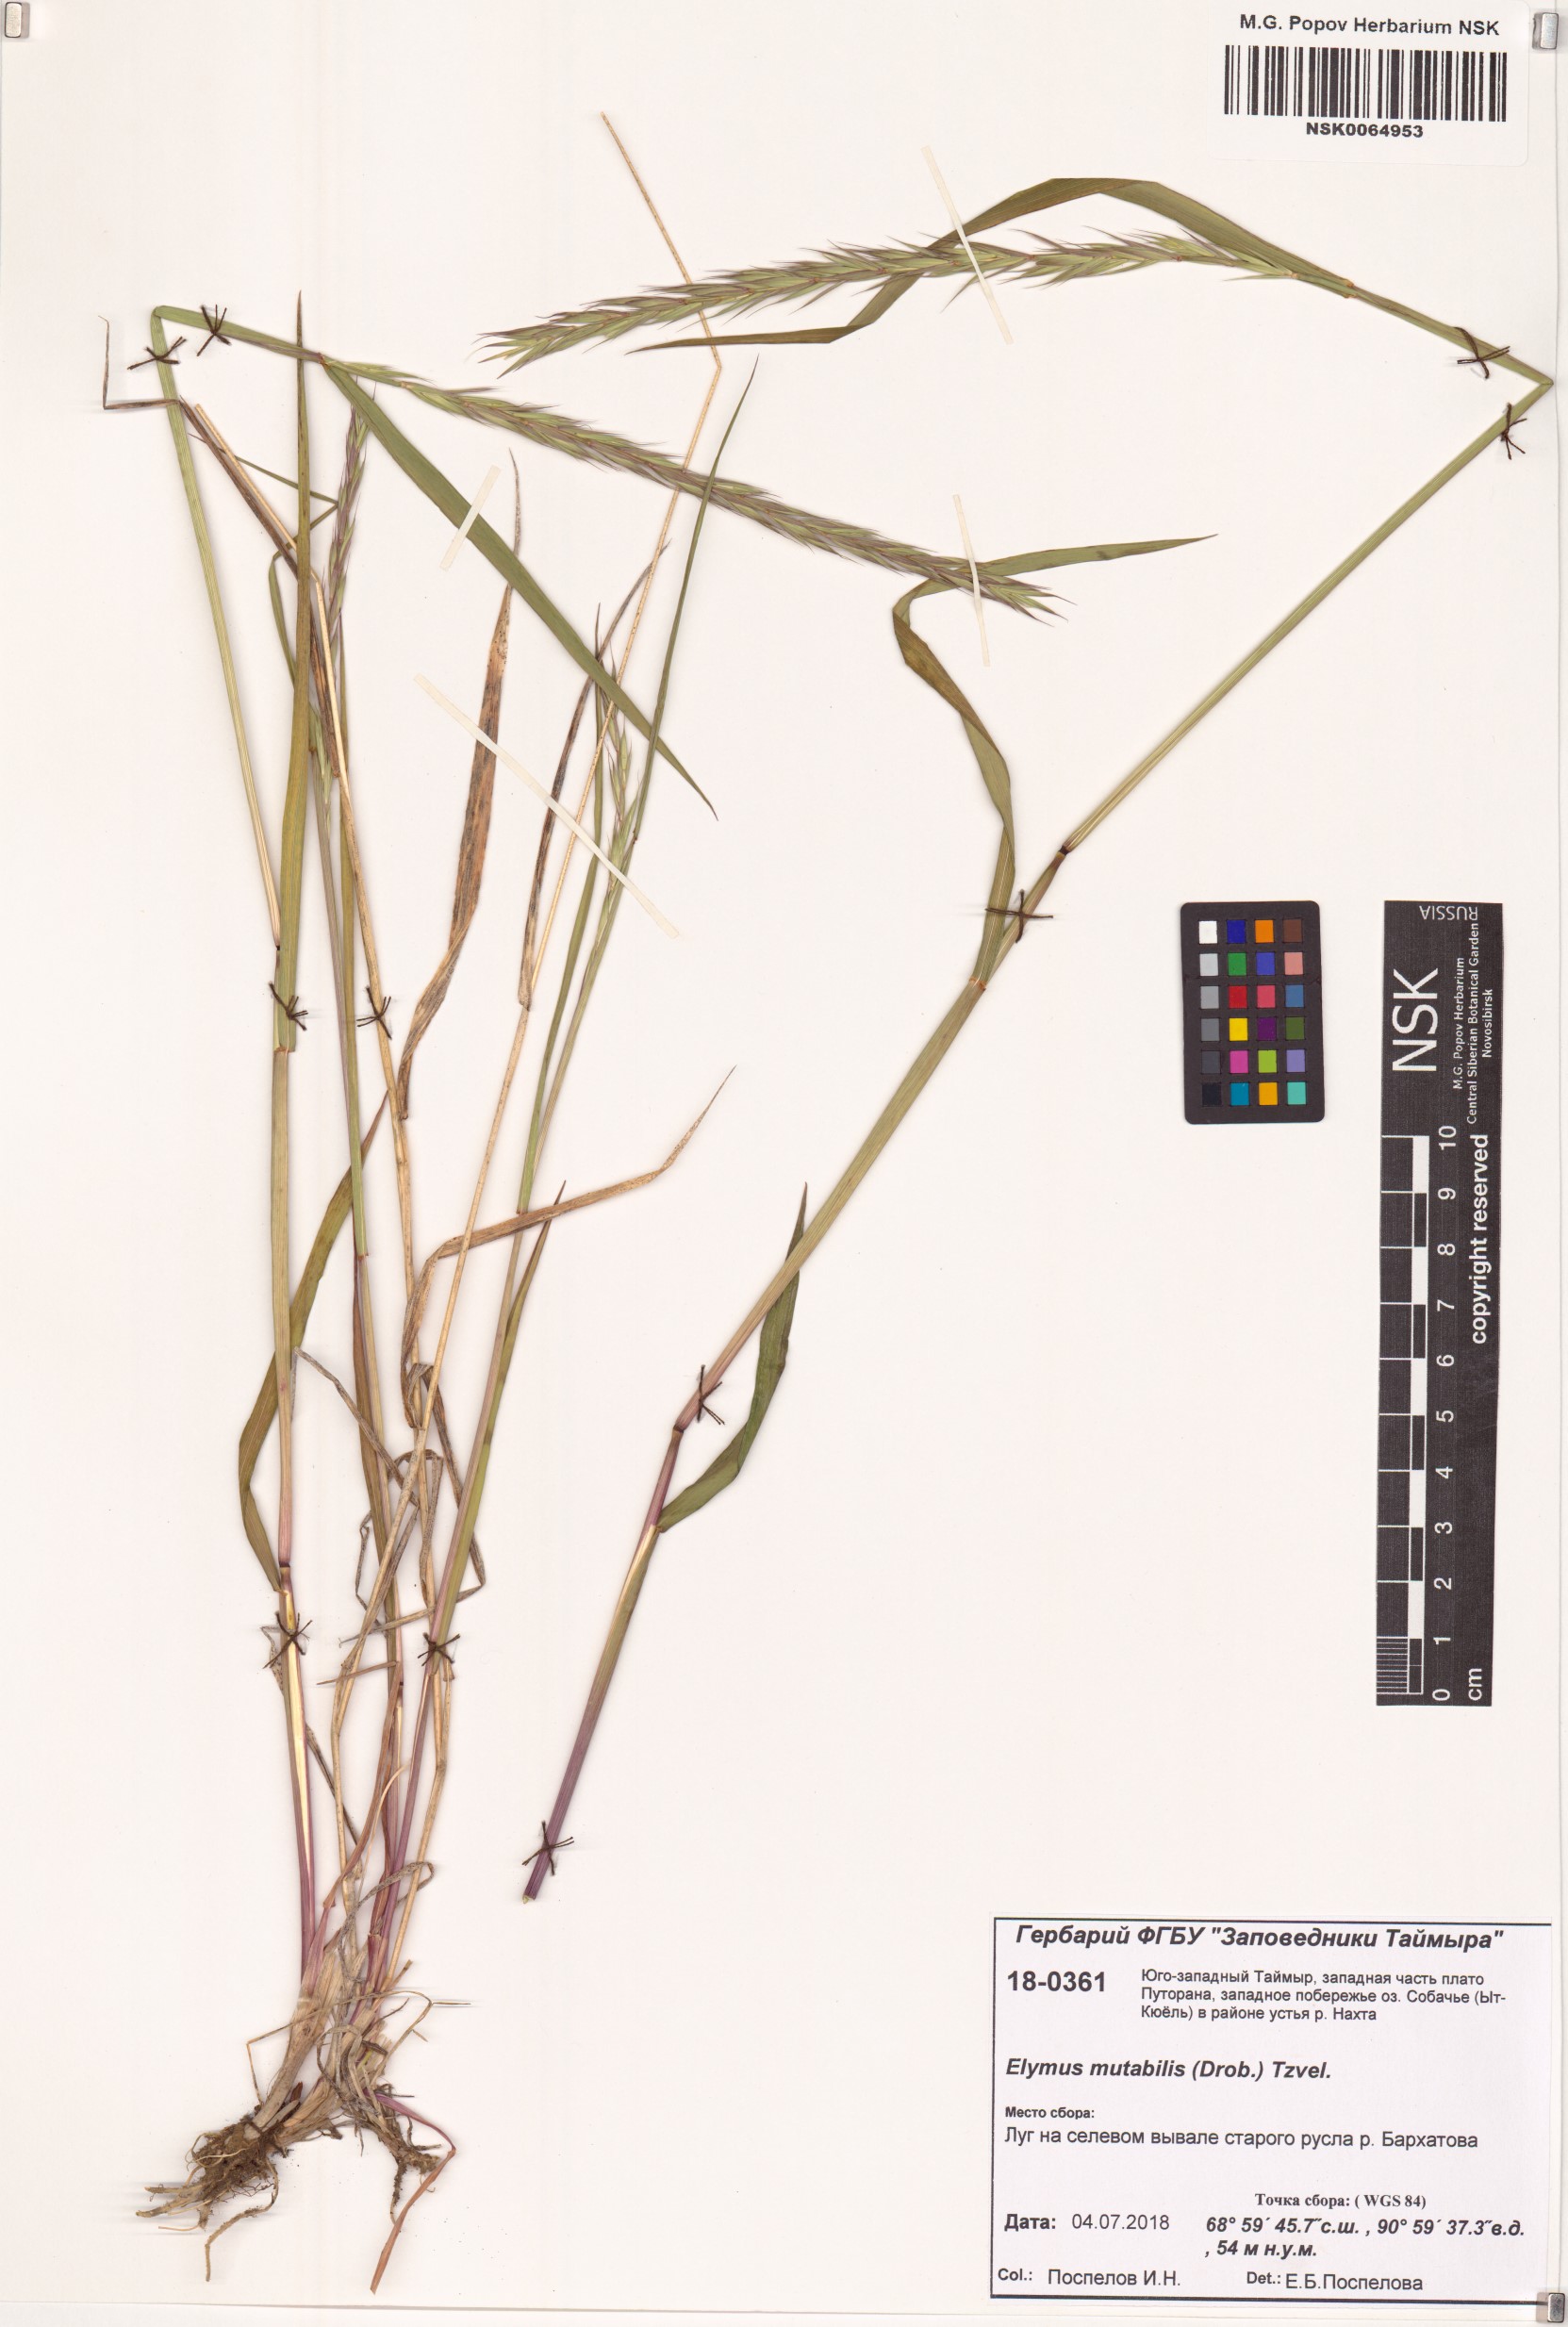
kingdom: Plantae
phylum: Tracheophyta
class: Liliopsida
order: Poales
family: Poaceae
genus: Elymus
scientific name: Elymus mutabilis
